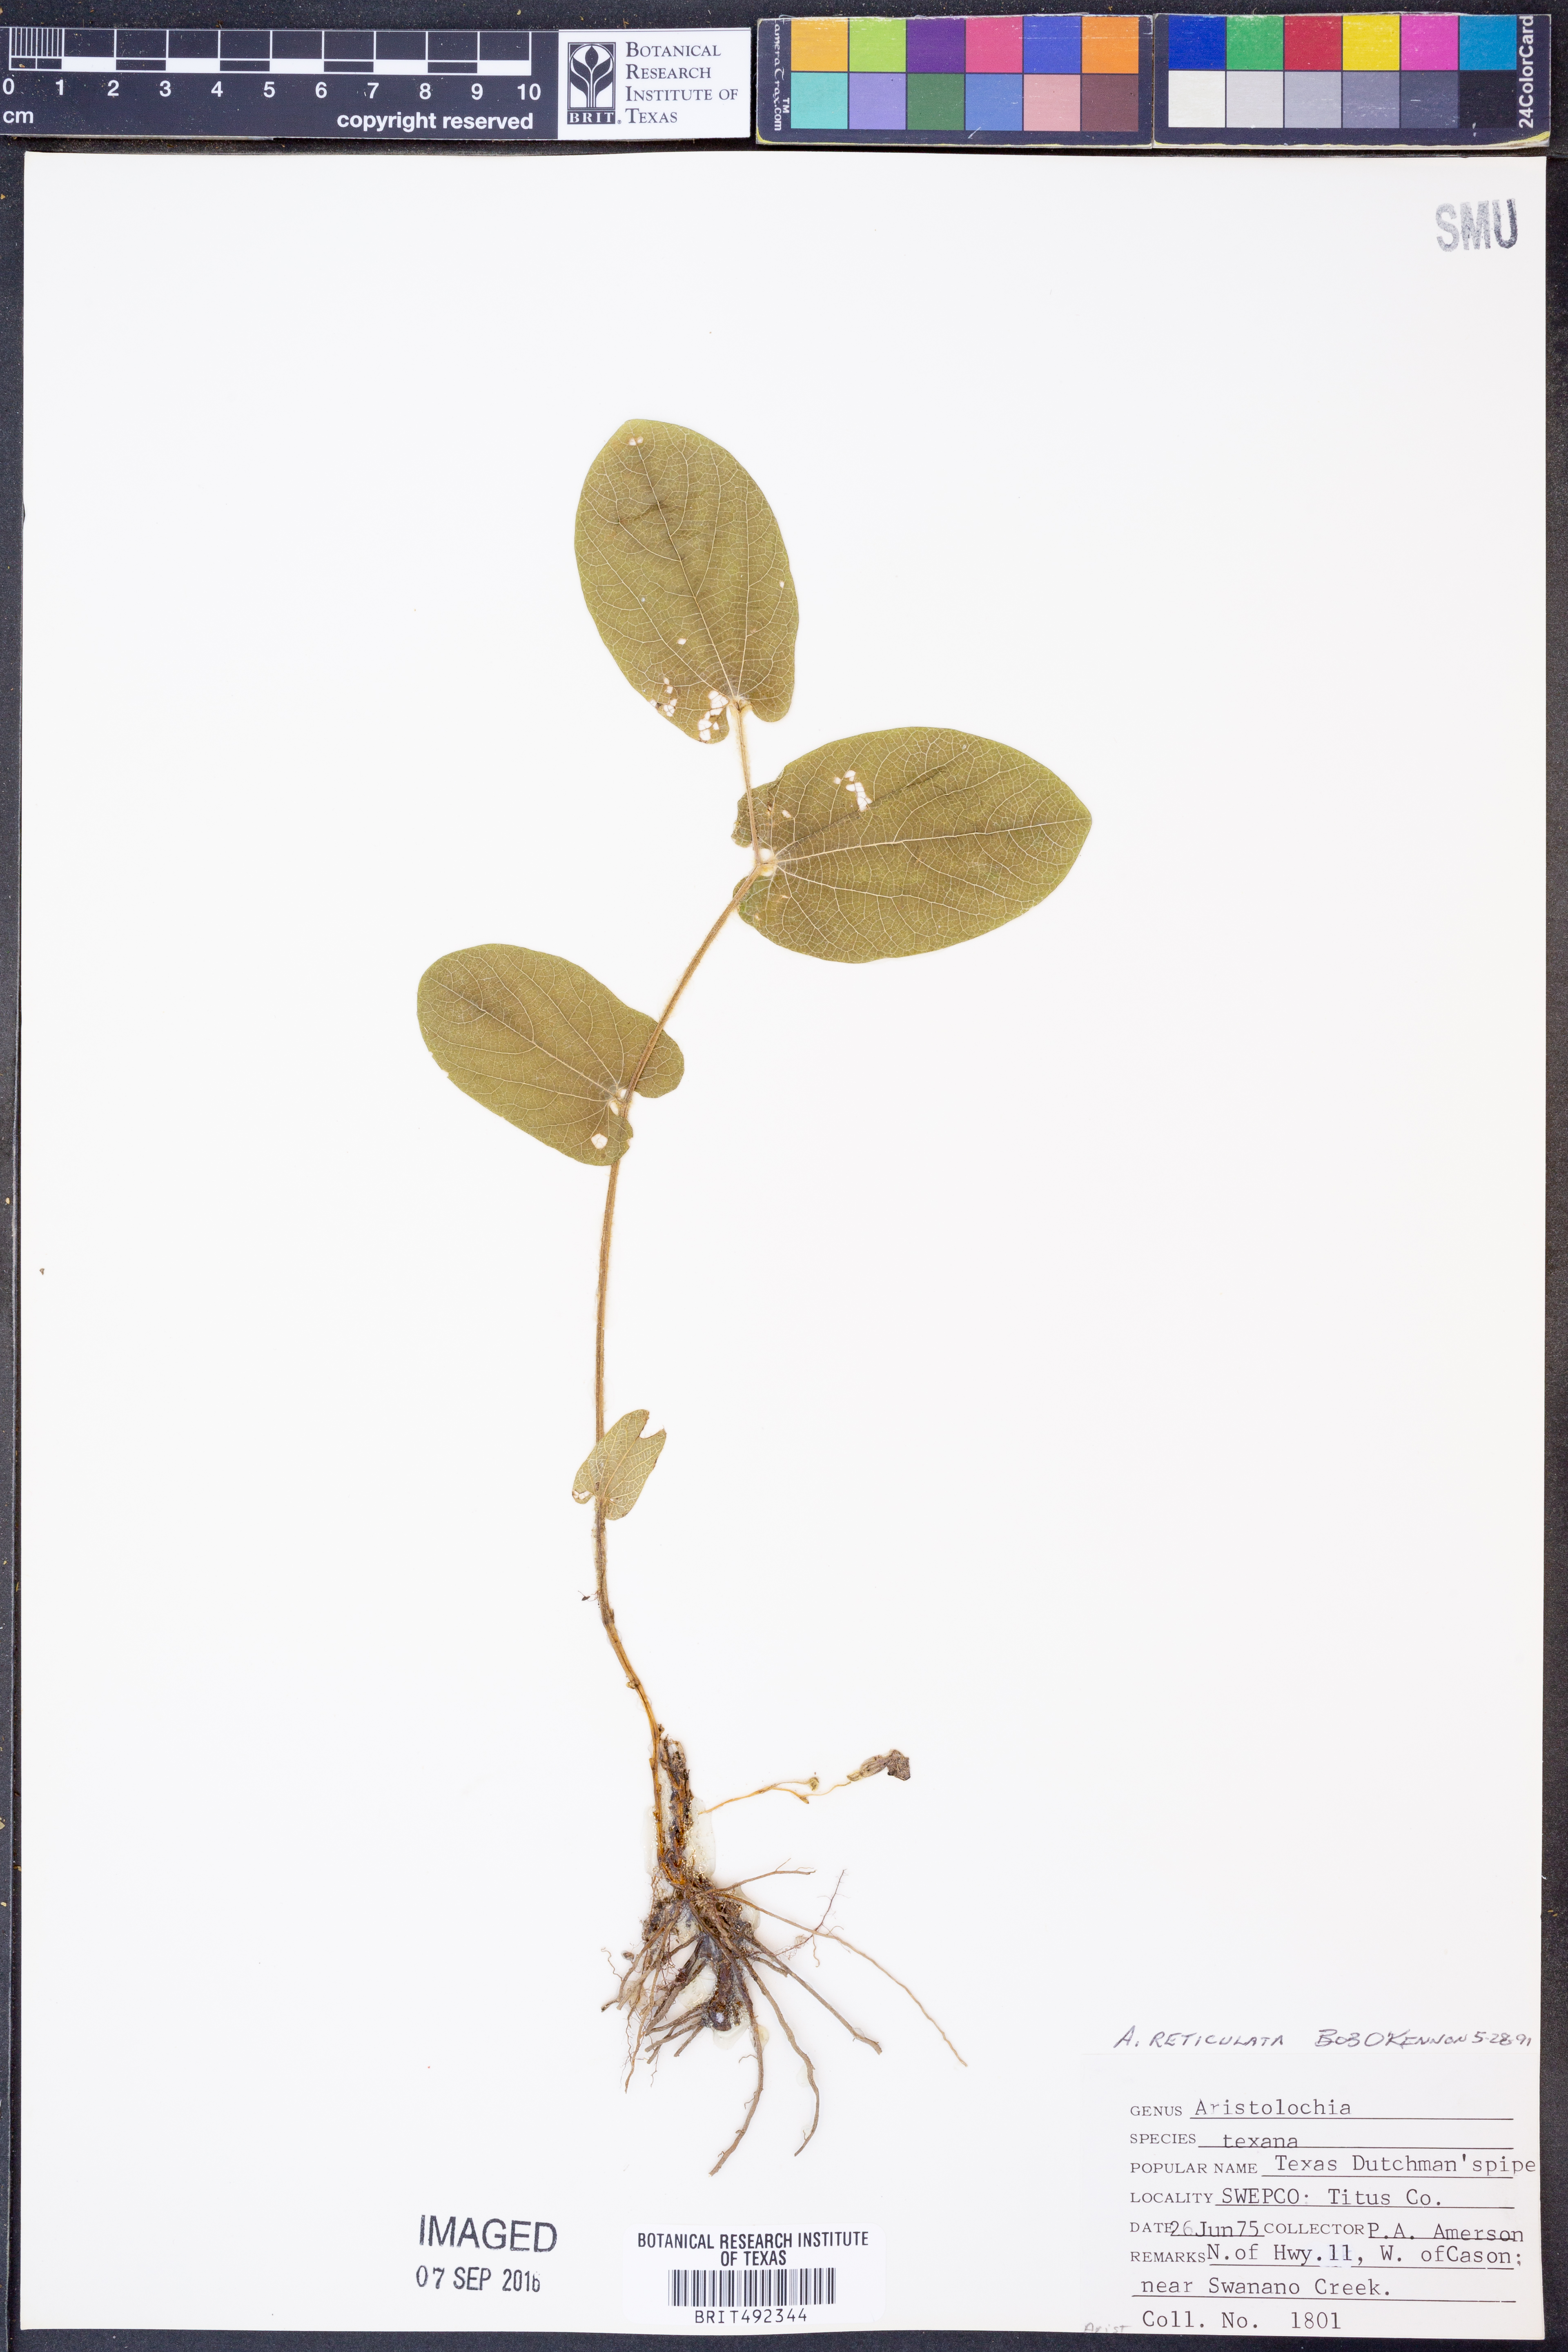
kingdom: Plantae
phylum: Tracheophyta
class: Magnoliopsida
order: Piperales
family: Aristolochiaceae
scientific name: Aristolochiaceae
